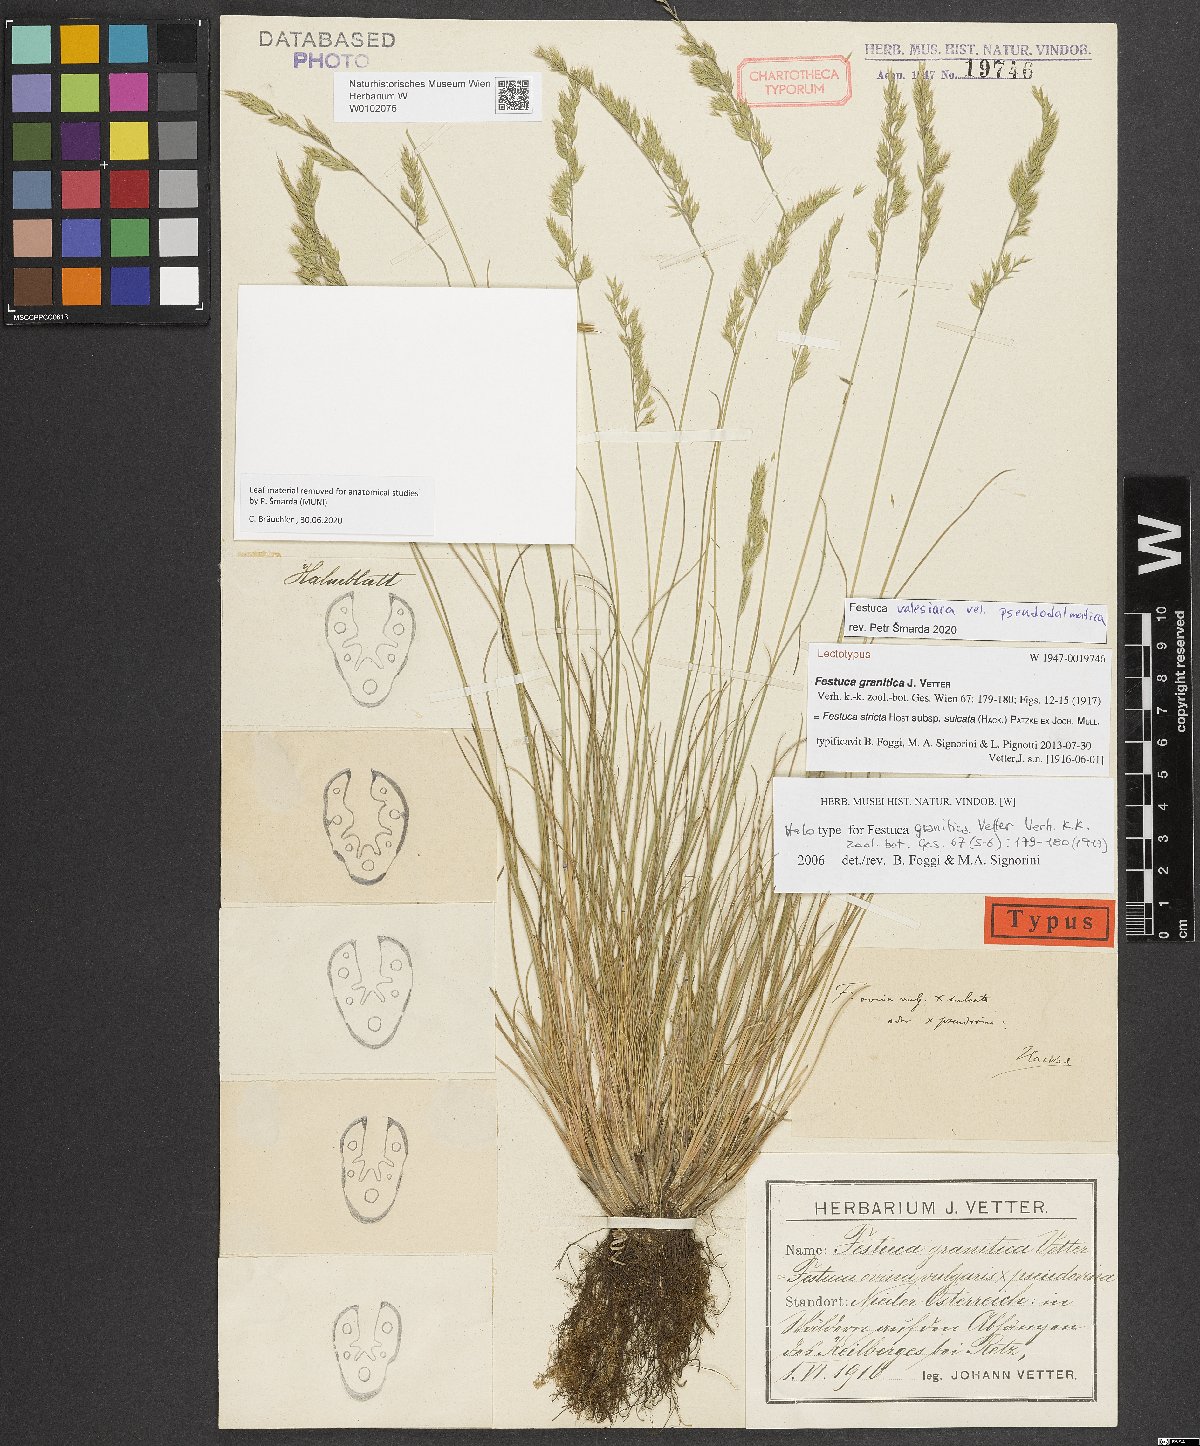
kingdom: Plantae
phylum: Tracheophyta
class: Liliopsida
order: Poales
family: Poaceae
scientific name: Poaceae
